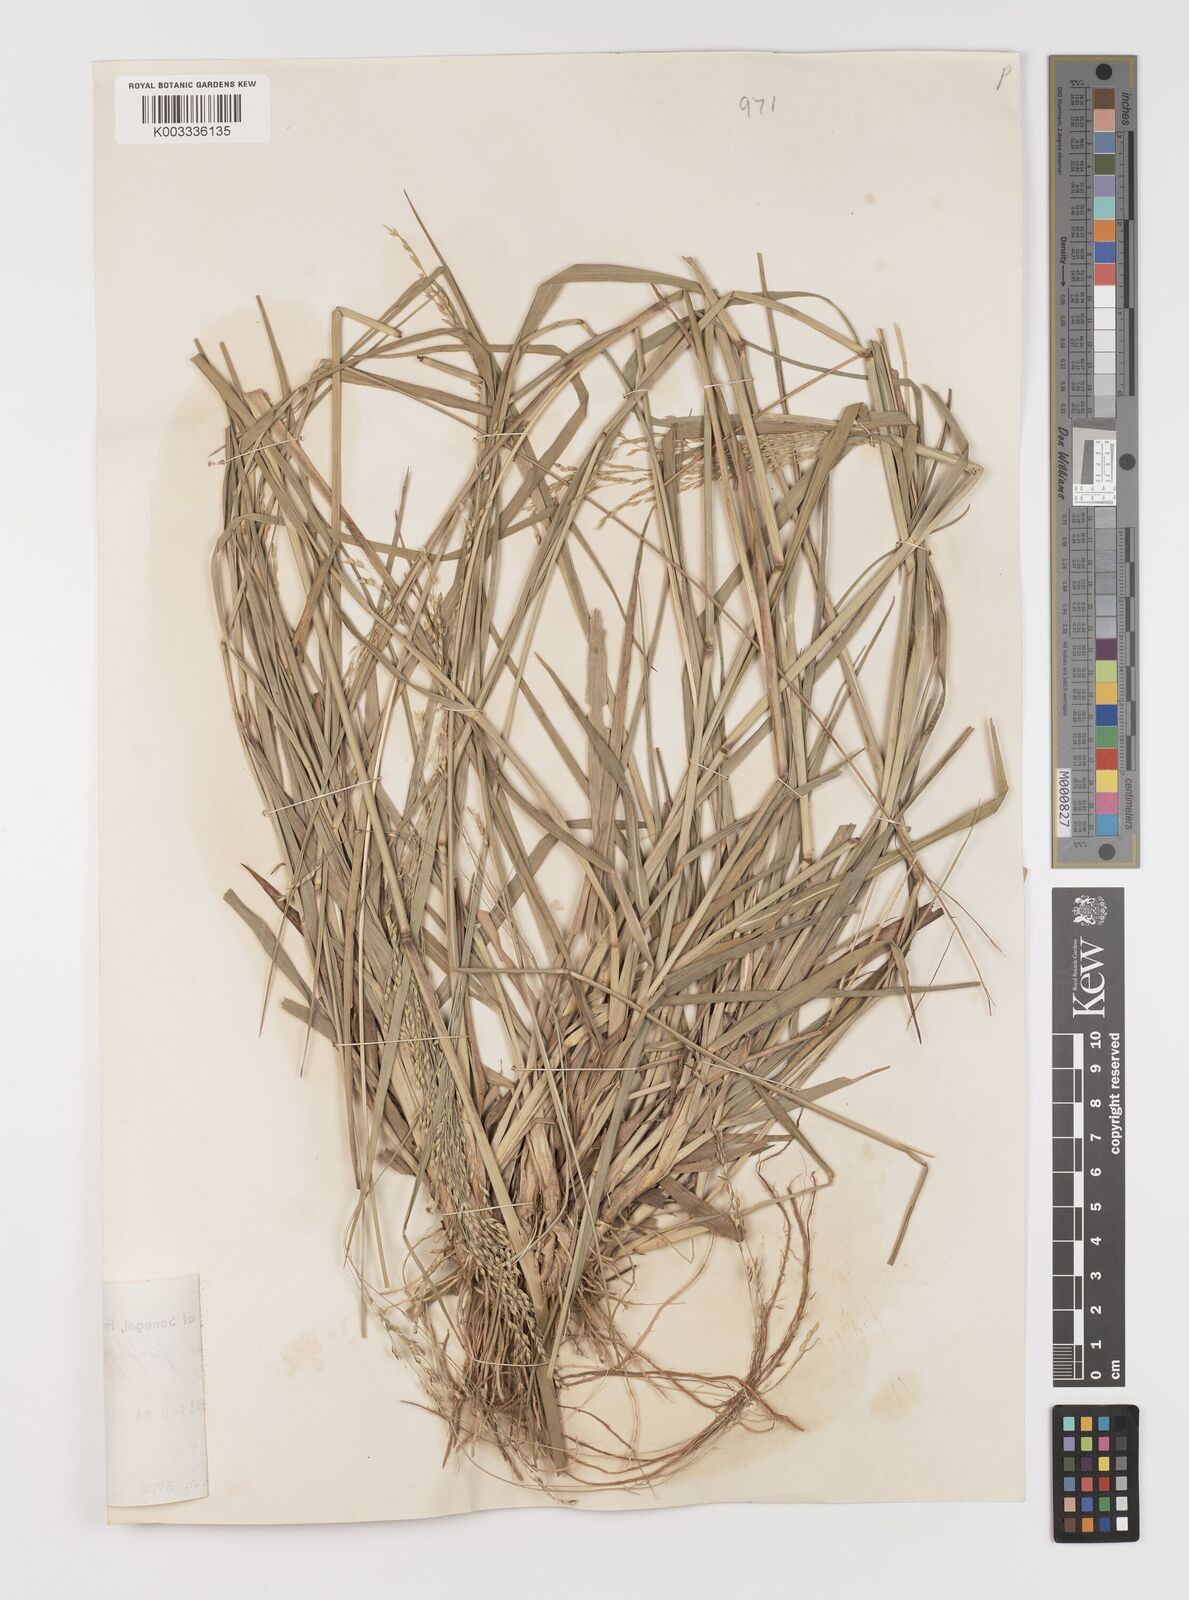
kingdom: Plantae
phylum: Tracheophyta
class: Liliopsida
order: Poales
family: Poaceae
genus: Panicum
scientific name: Panicum porphyrrhizos
